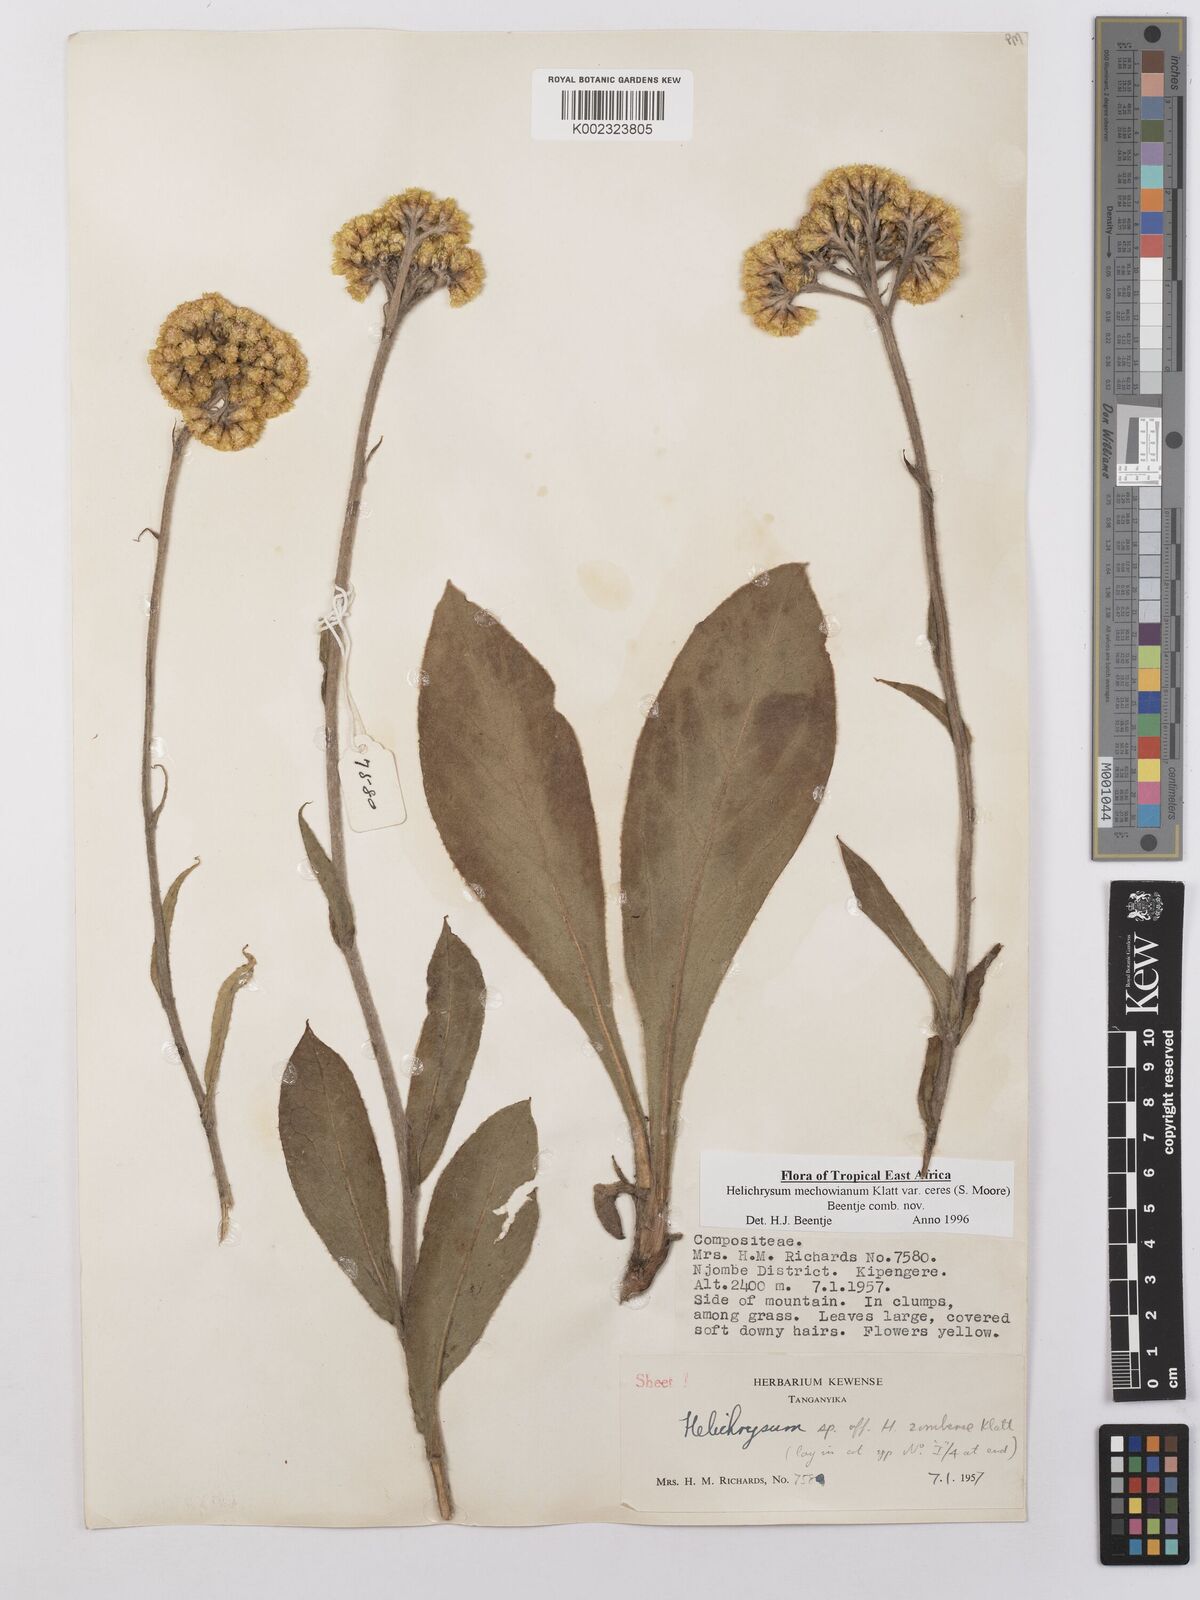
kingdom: Plantae
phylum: Tracheophyta
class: Magnoliopsida
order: Asterales
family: Asteraceae
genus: Helichrysum
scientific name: Helichrysum mechowianum
